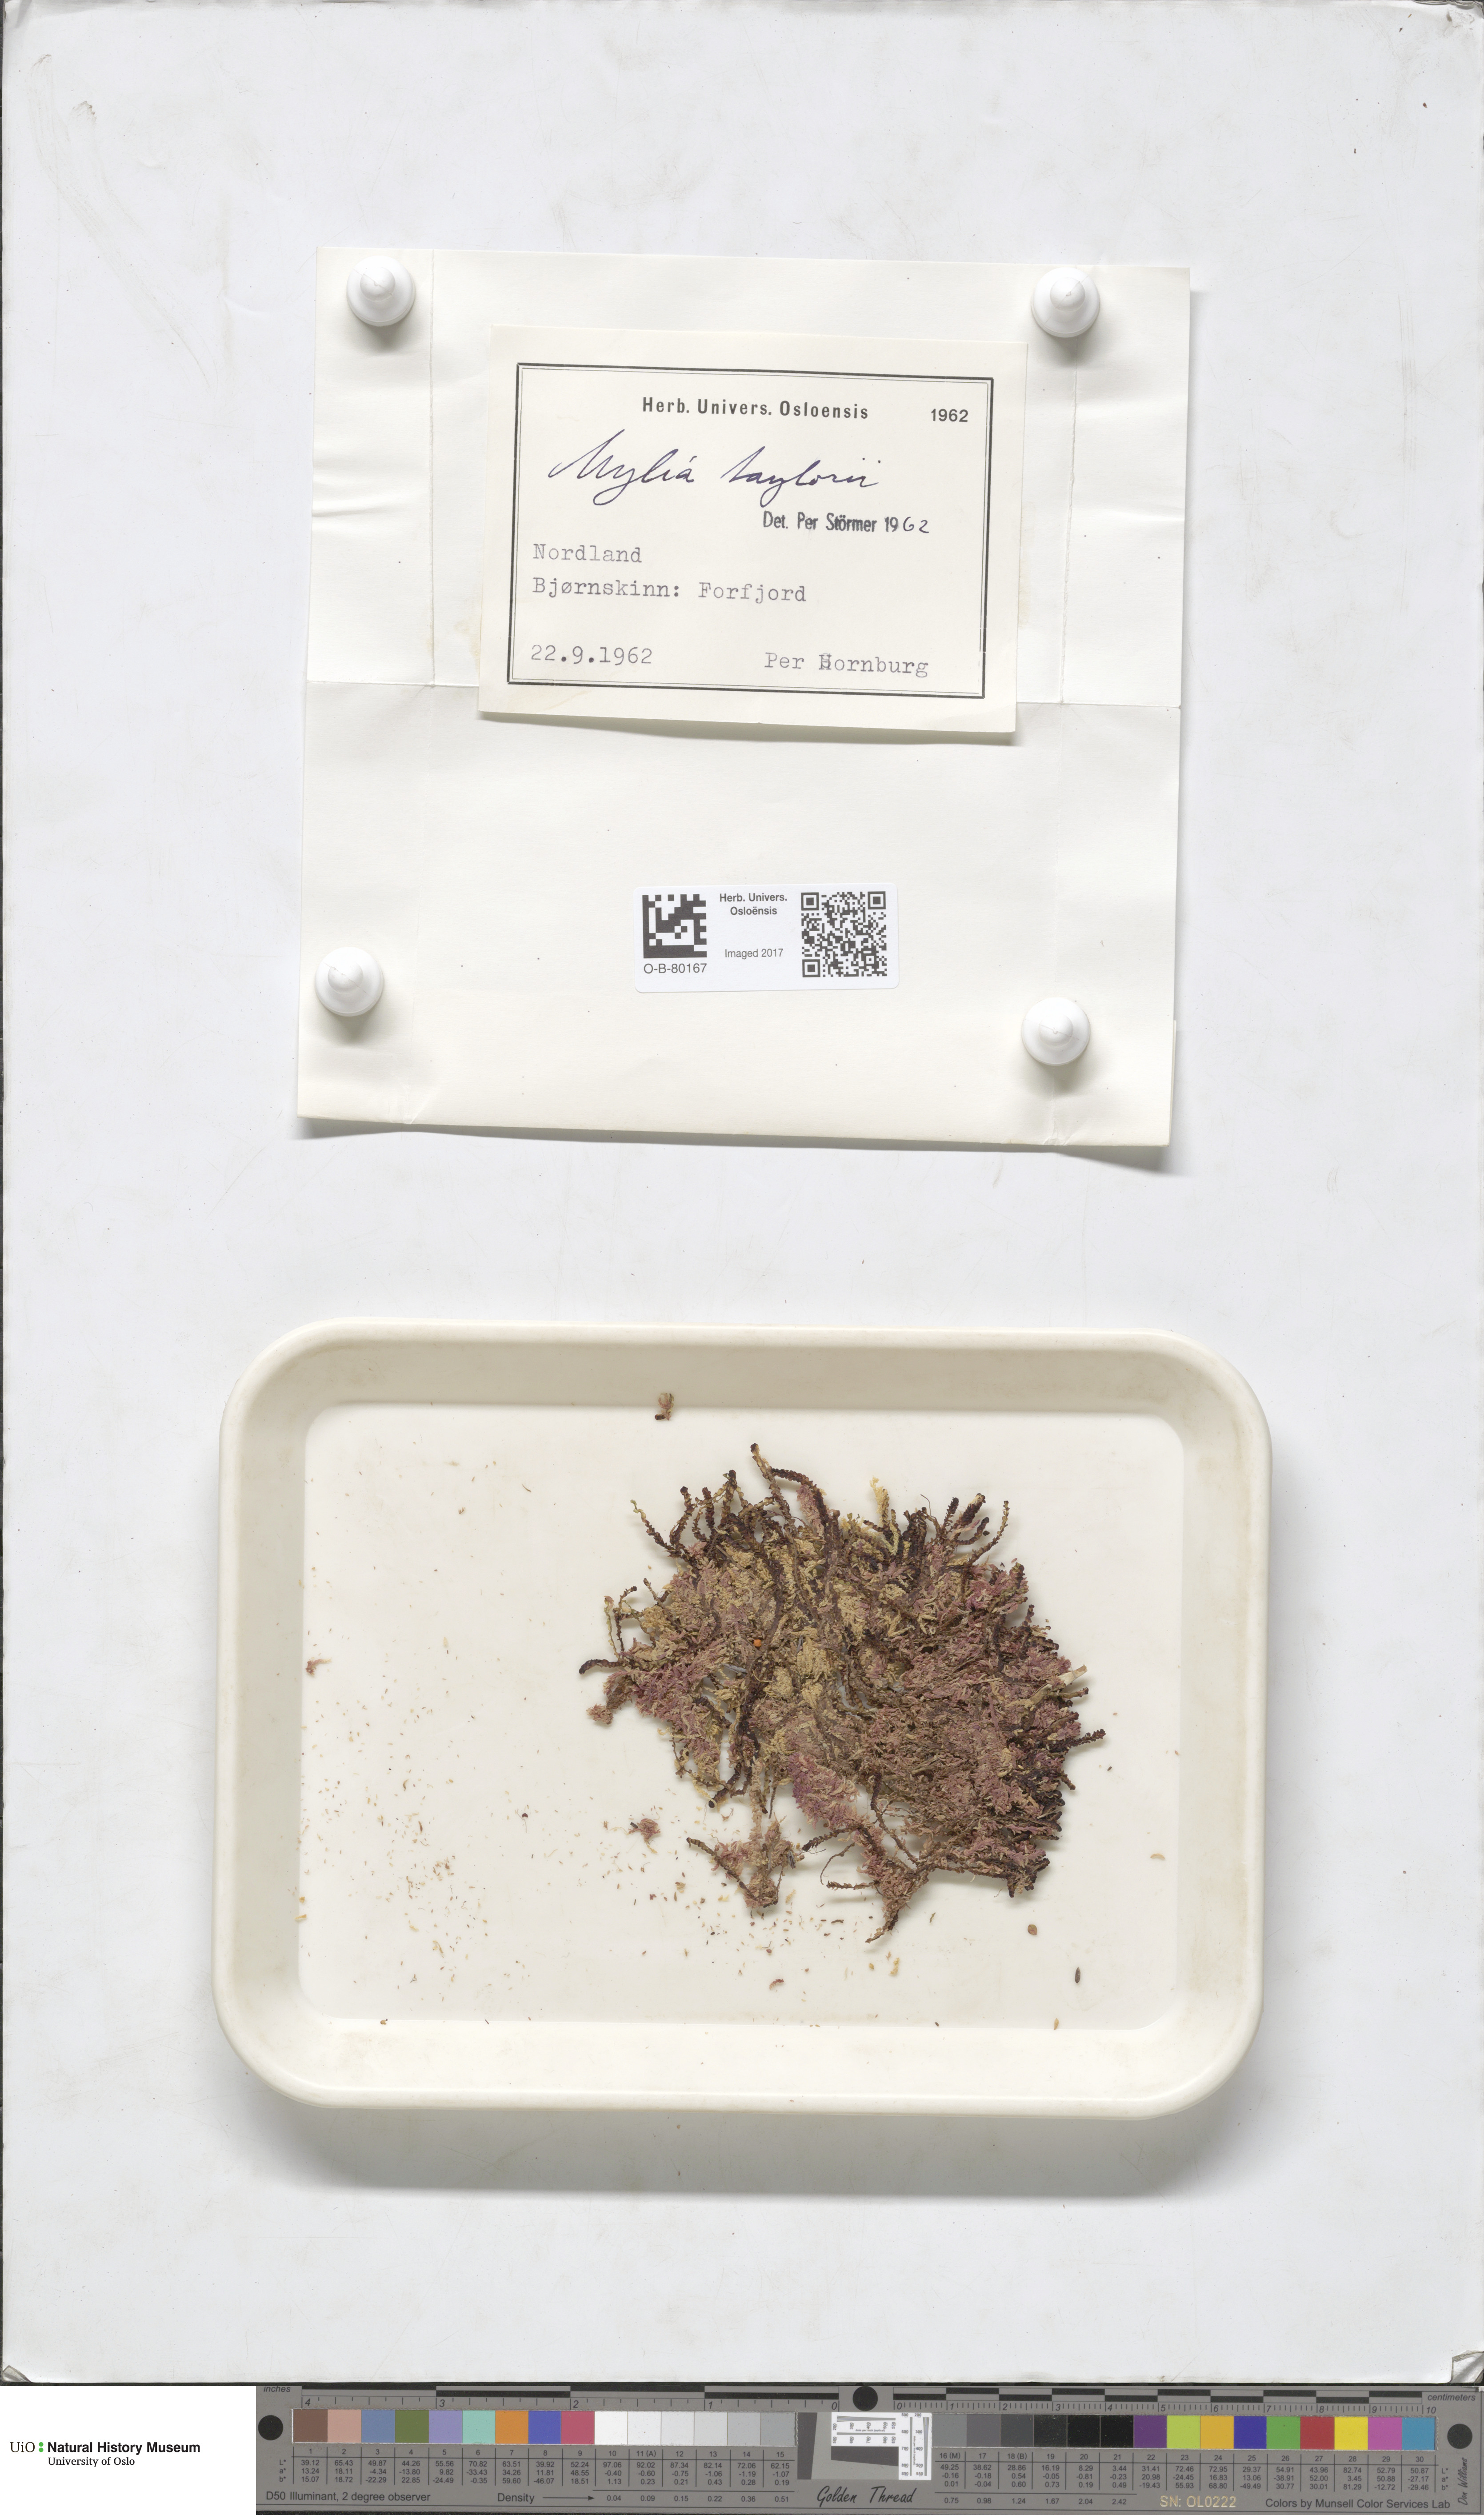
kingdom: Plantae
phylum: Marchantiophyta
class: Jungermanniopsida
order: Jungermanniales
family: Myliaceae
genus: Mylia
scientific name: Mylia taylorii
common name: Taylor s flapwort
